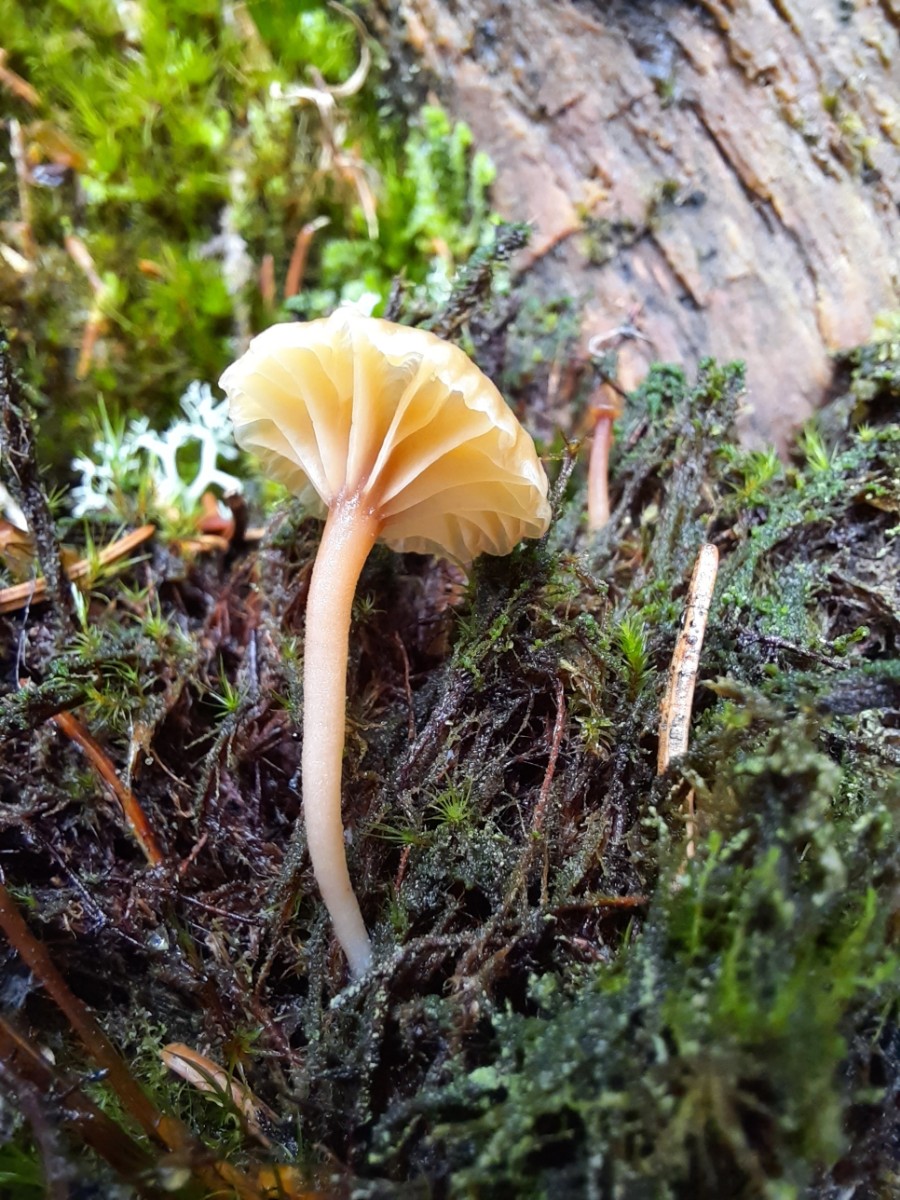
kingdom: Fungi
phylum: Basidiomycota
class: Agaricomycetes
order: Agaricales
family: Hygrophoraceae
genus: Lichenomphalia
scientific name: Lichenomphalia umbellifera
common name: tørve-lavhat
